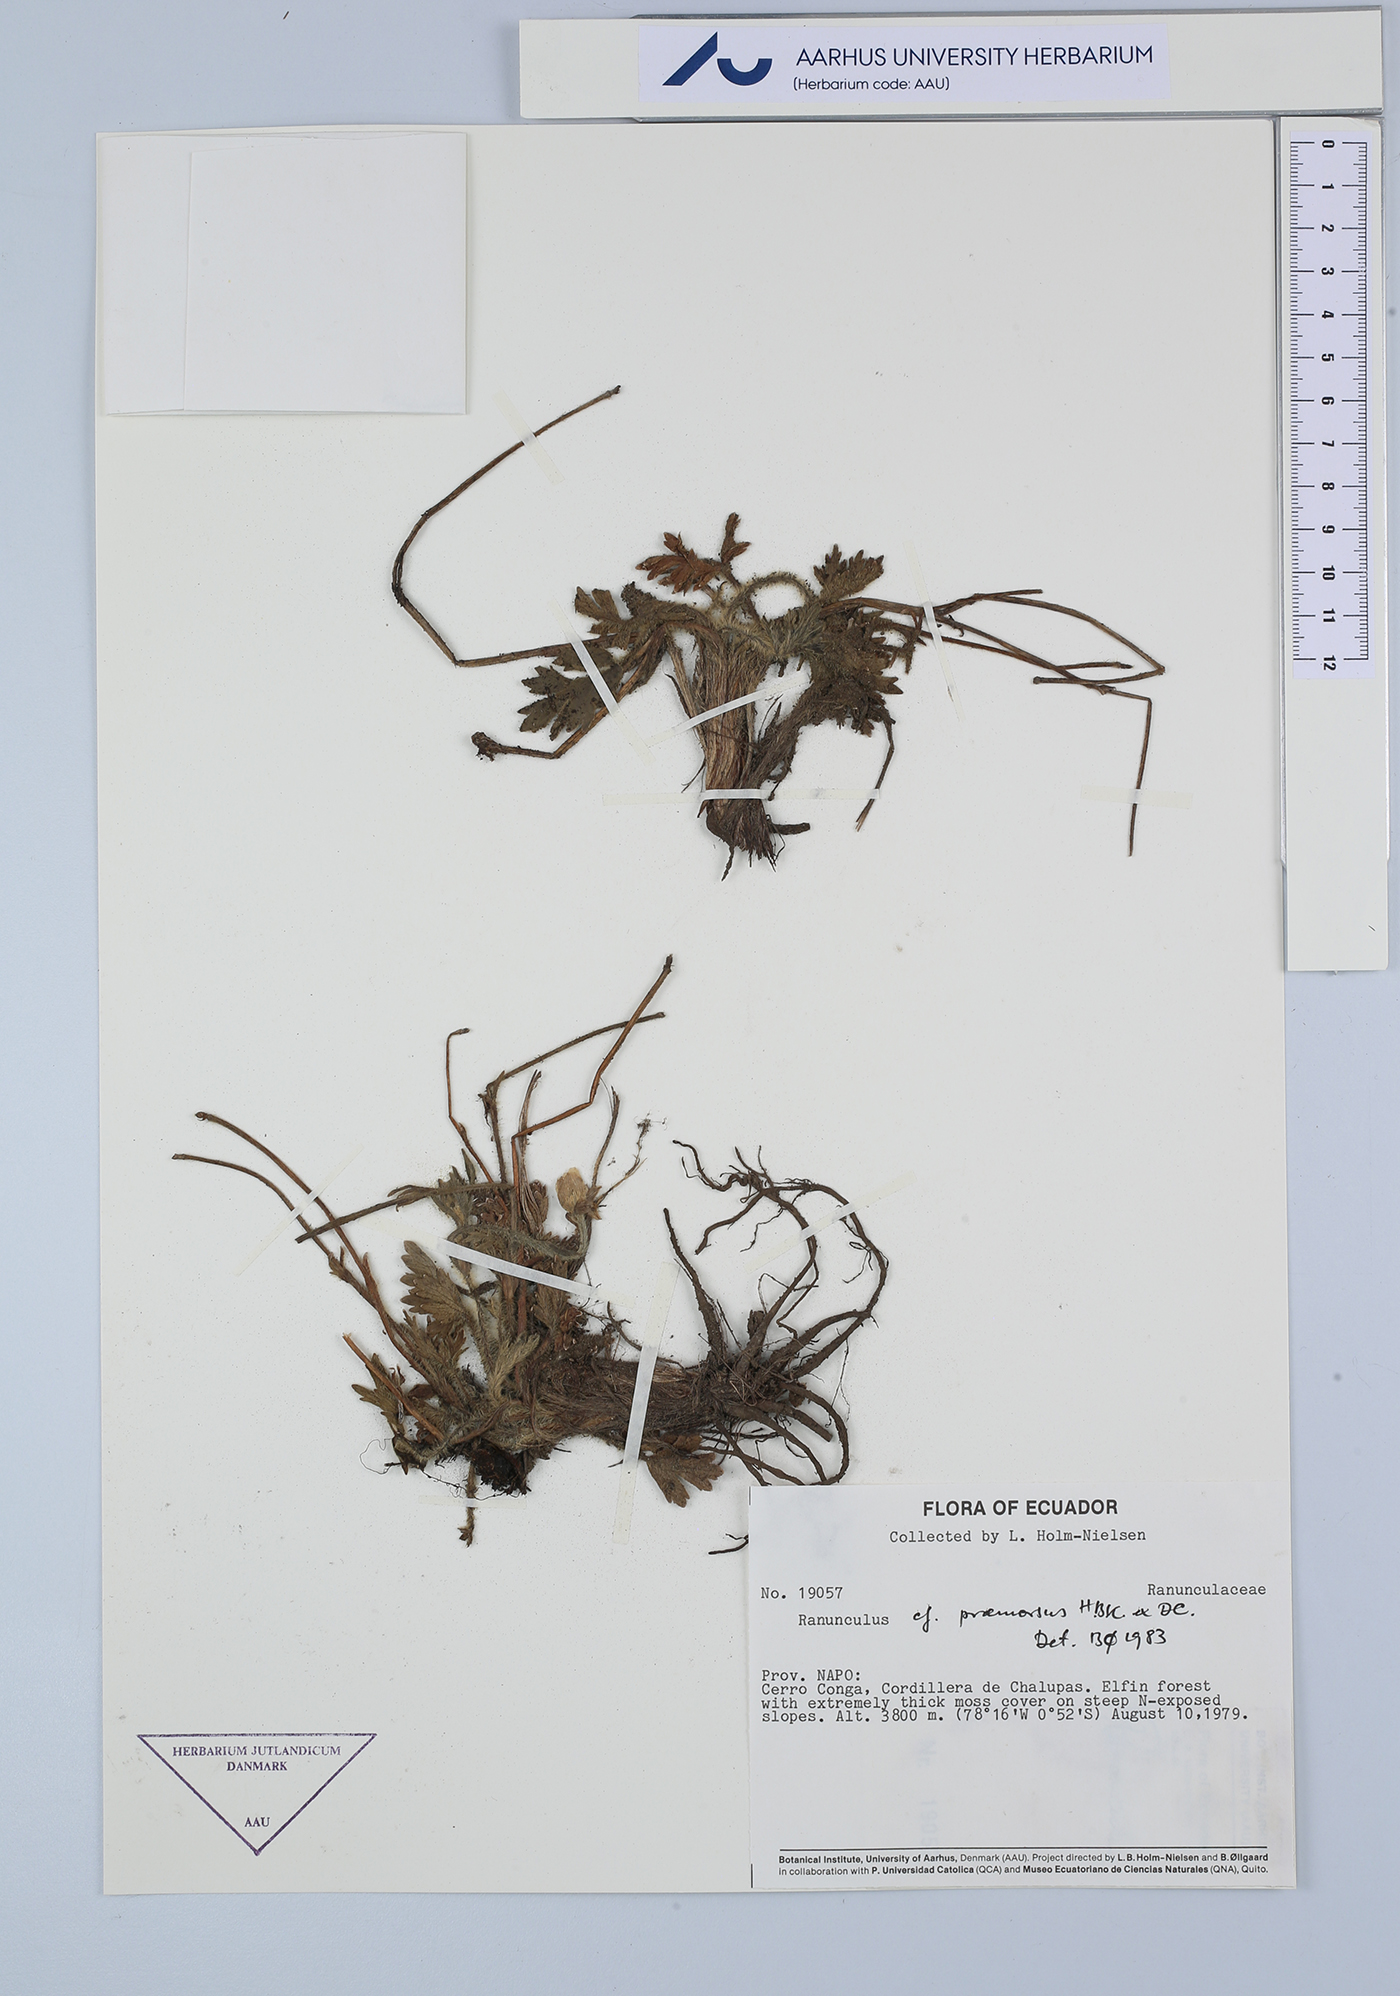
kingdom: Plantae
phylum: Tracheophyta
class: Magnoliopsida
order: Ranunculales
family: Ranunculaceae
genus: Ranunculus
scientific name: Ranunculus praemorsus
